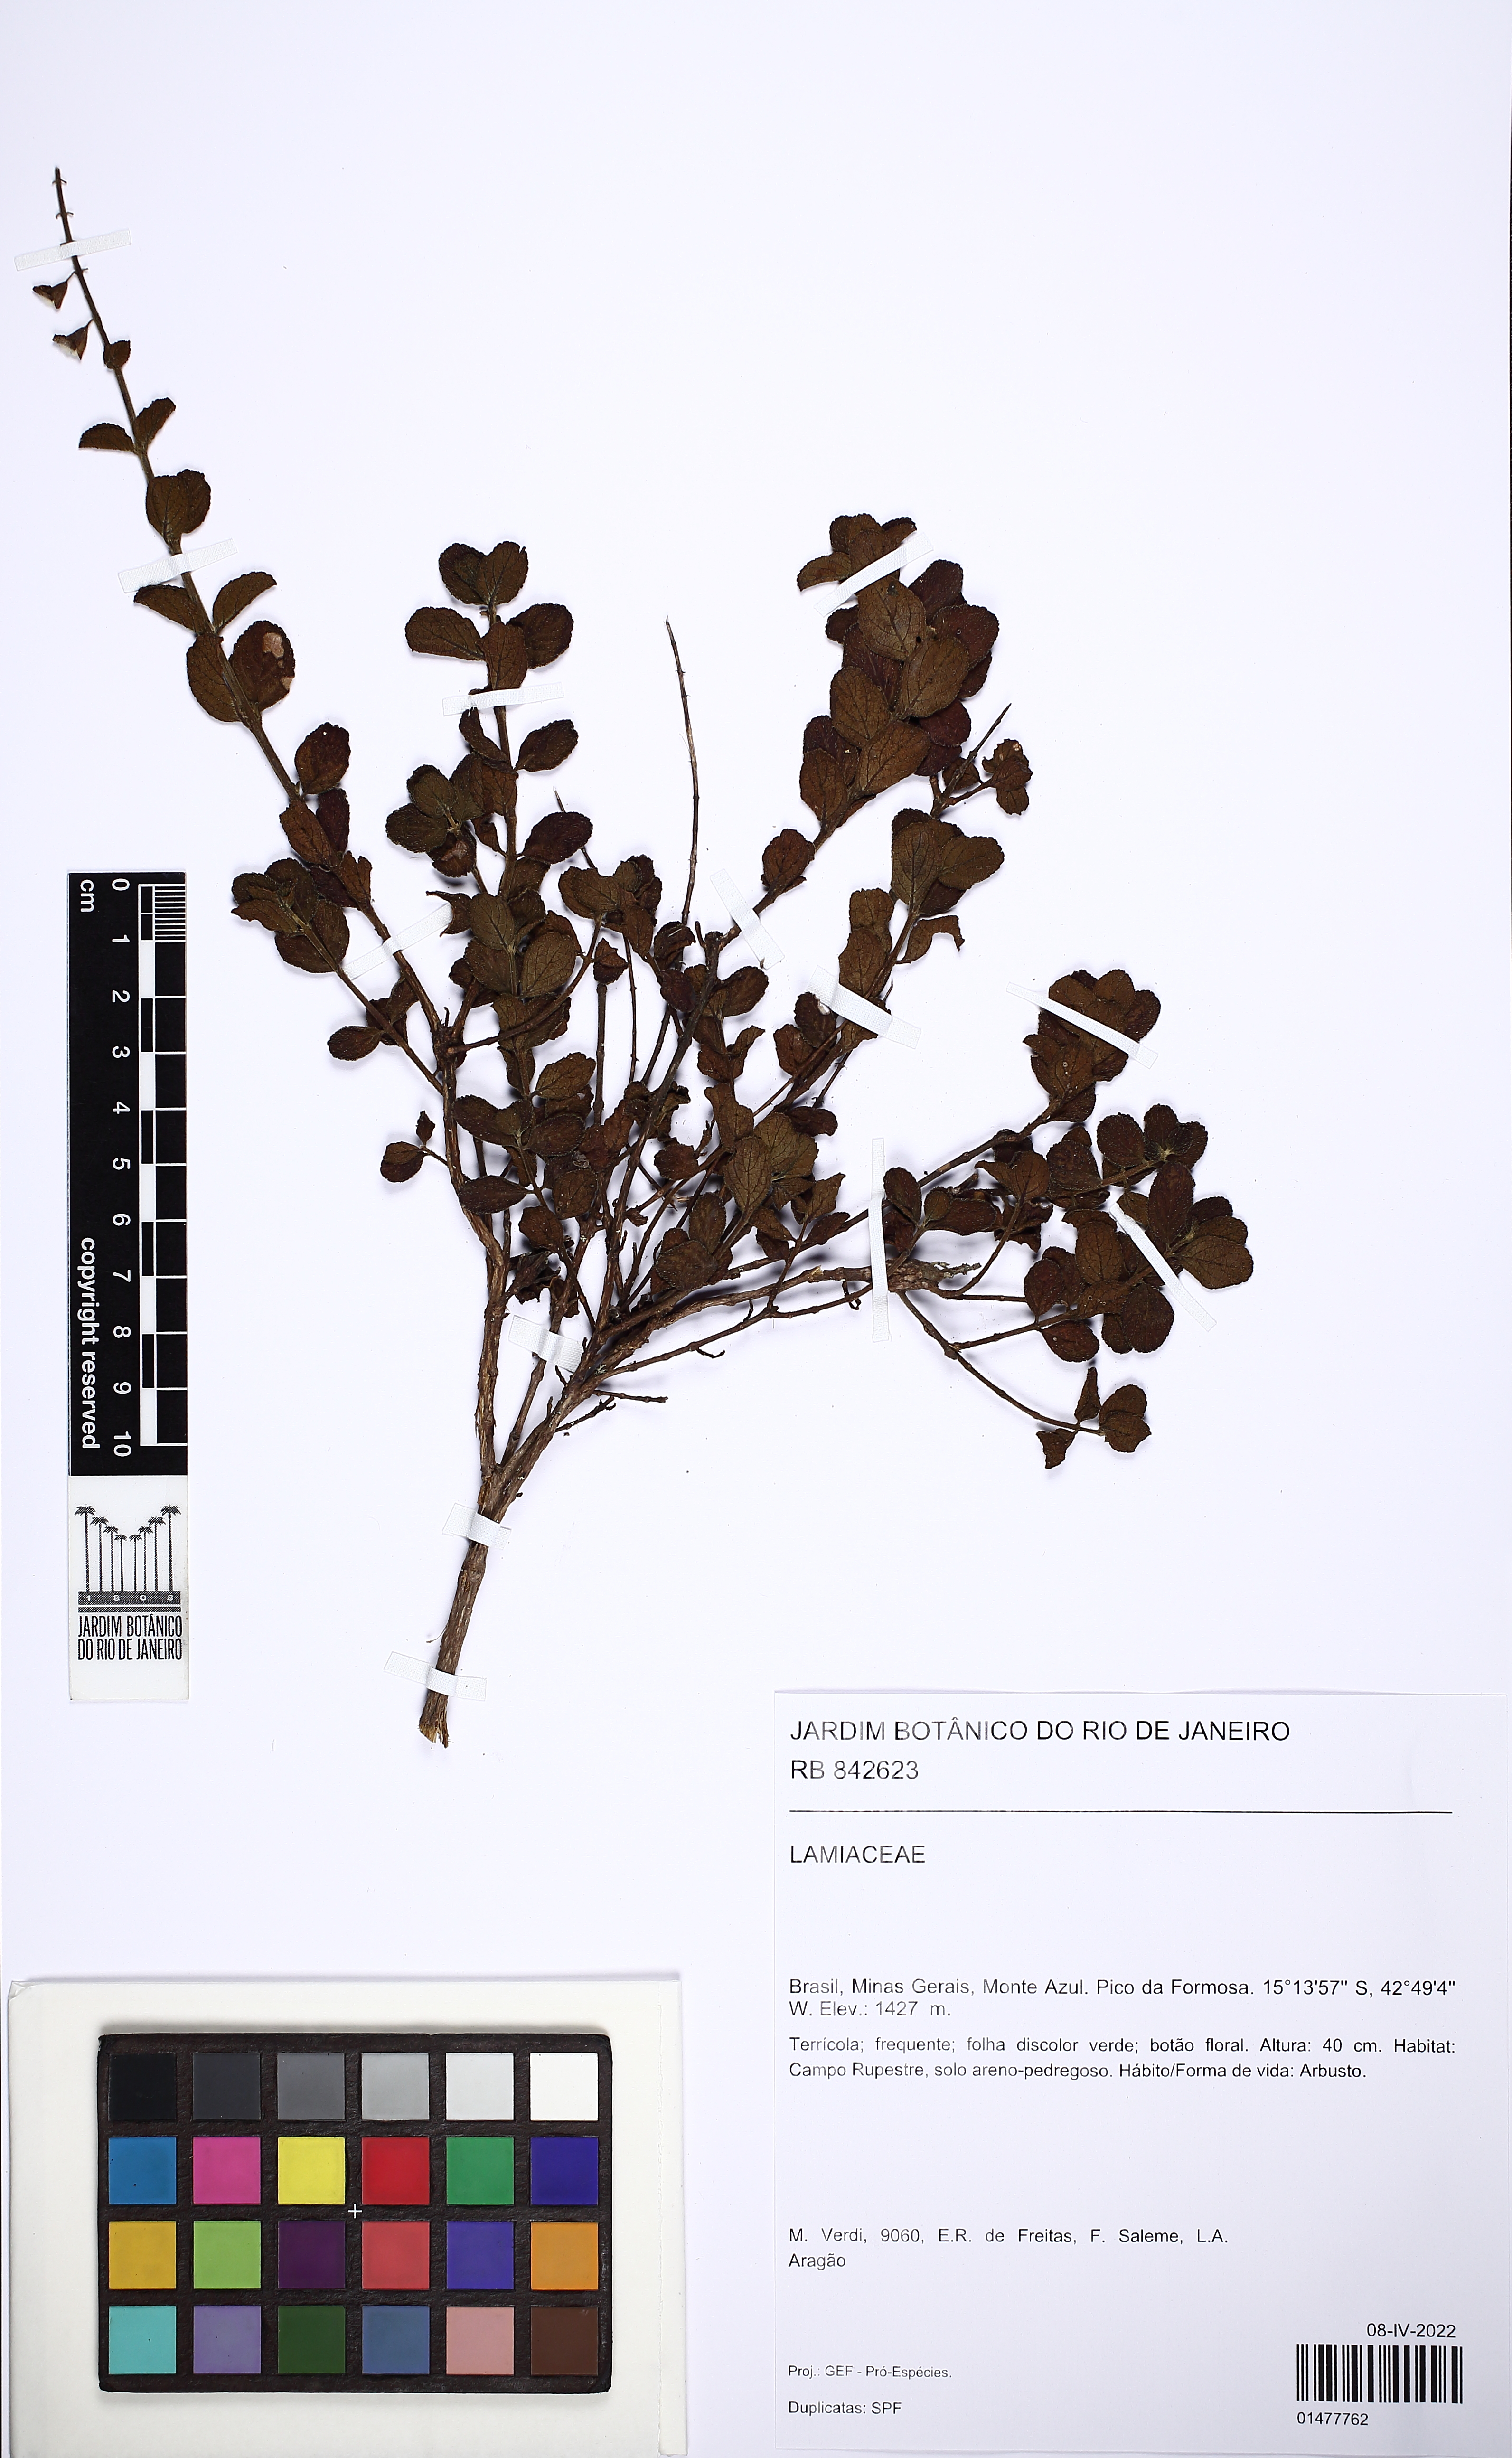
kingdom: Plantae
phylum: Tracheophyta
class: Magnoliopsida
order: Lamiales
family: Lamiaceae
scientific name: Lamiaceae
